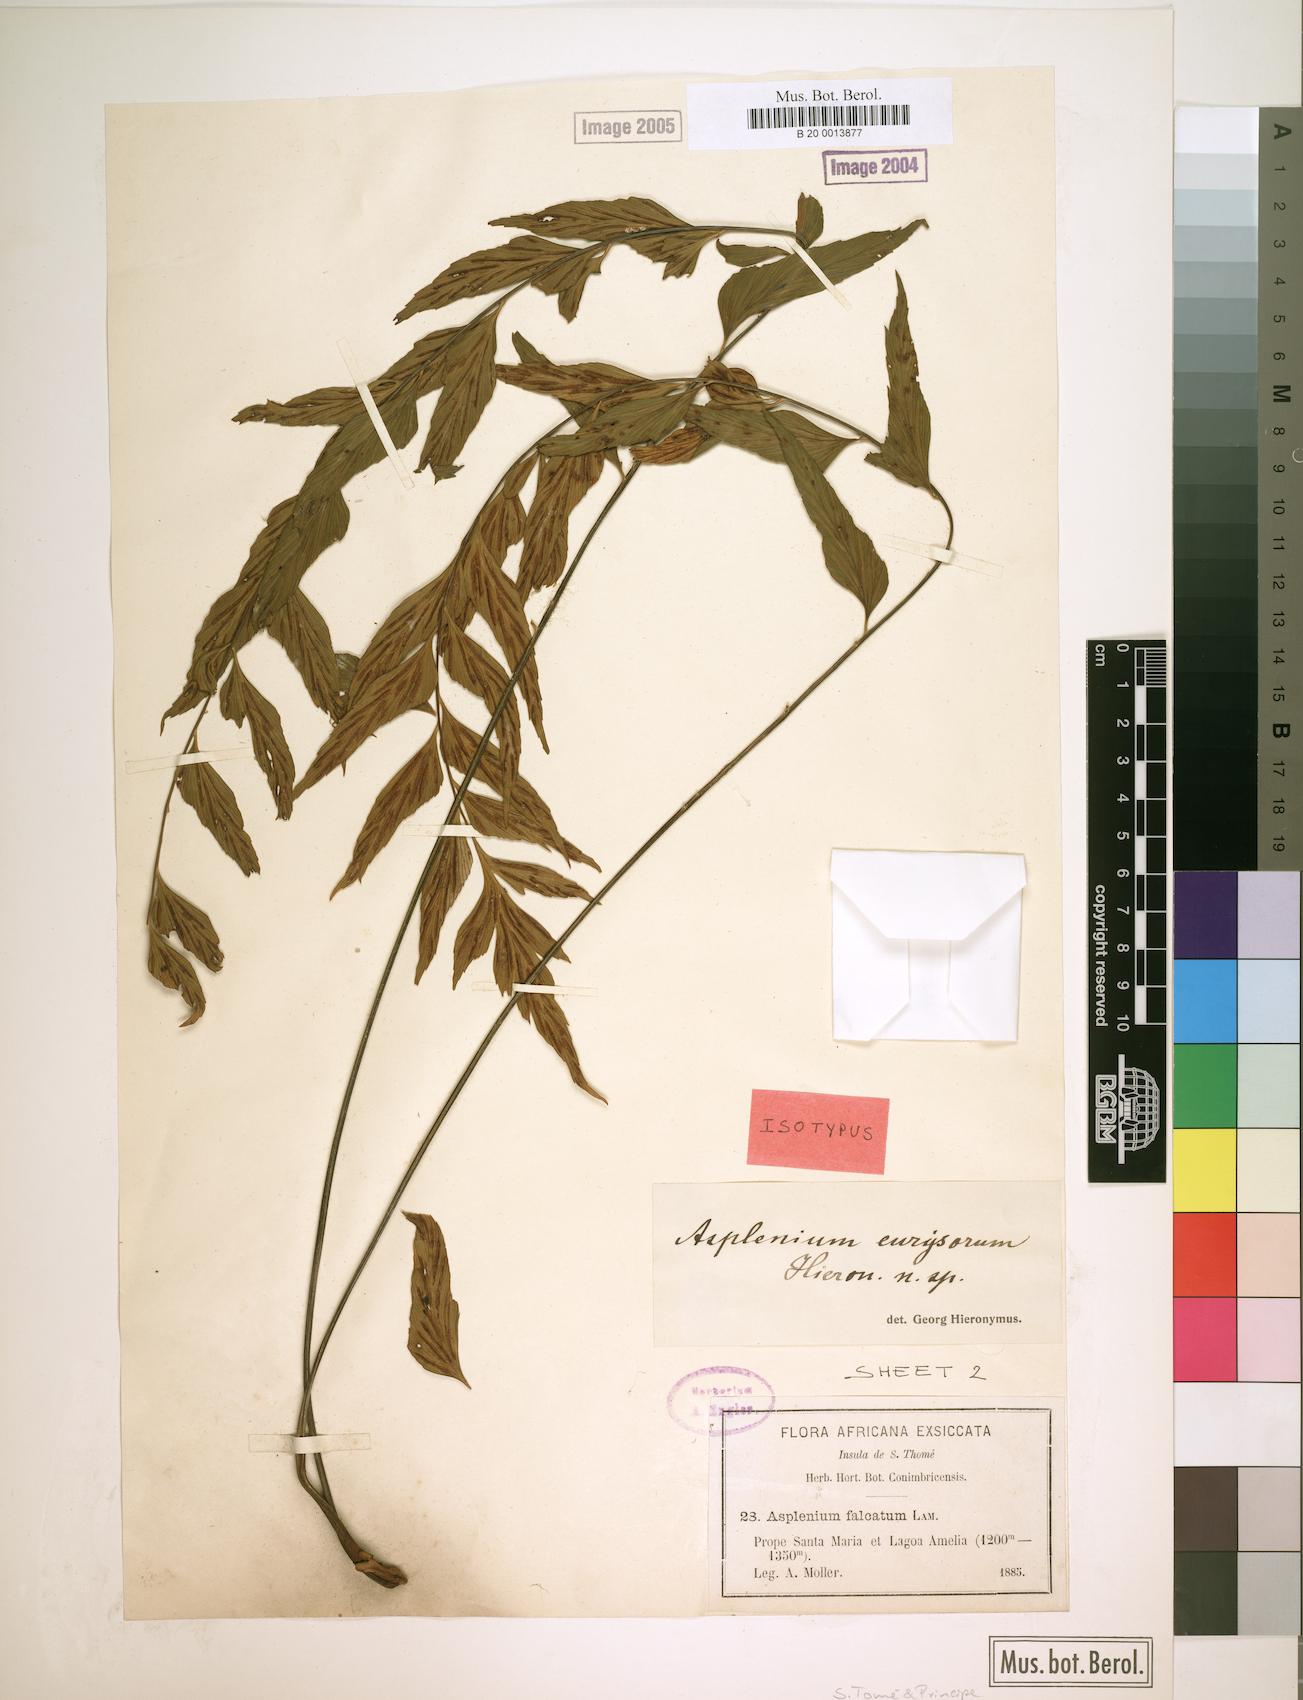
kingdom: Plantae
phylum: Tracheophyta
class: Polypodiopsida
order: Polypodiales
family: Aspleniaceae
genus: Asplenium
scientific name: Asplenium eurysorum
